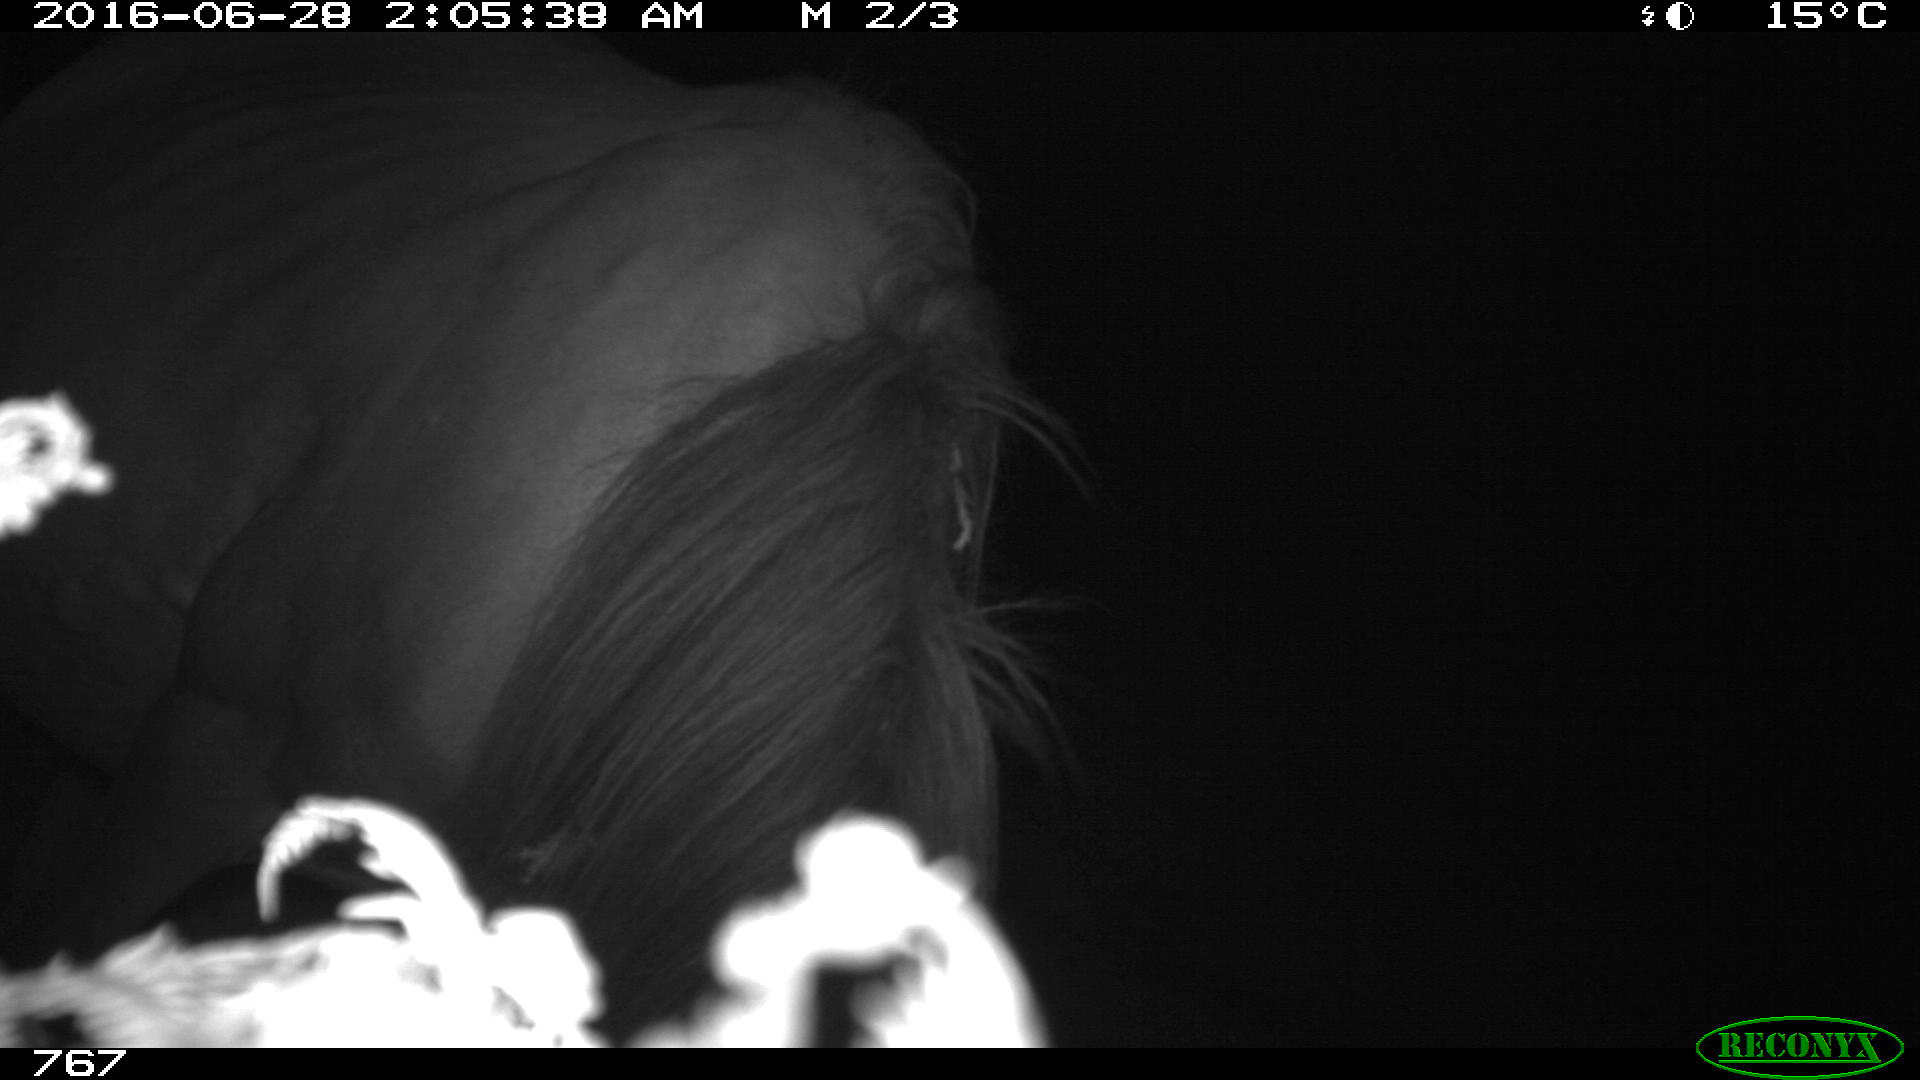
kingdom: Animalia
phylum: Chordata
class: Mammalia
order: Perissodactyla
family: Equidae
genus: Equus
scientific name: Equus caballus
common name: Horse
